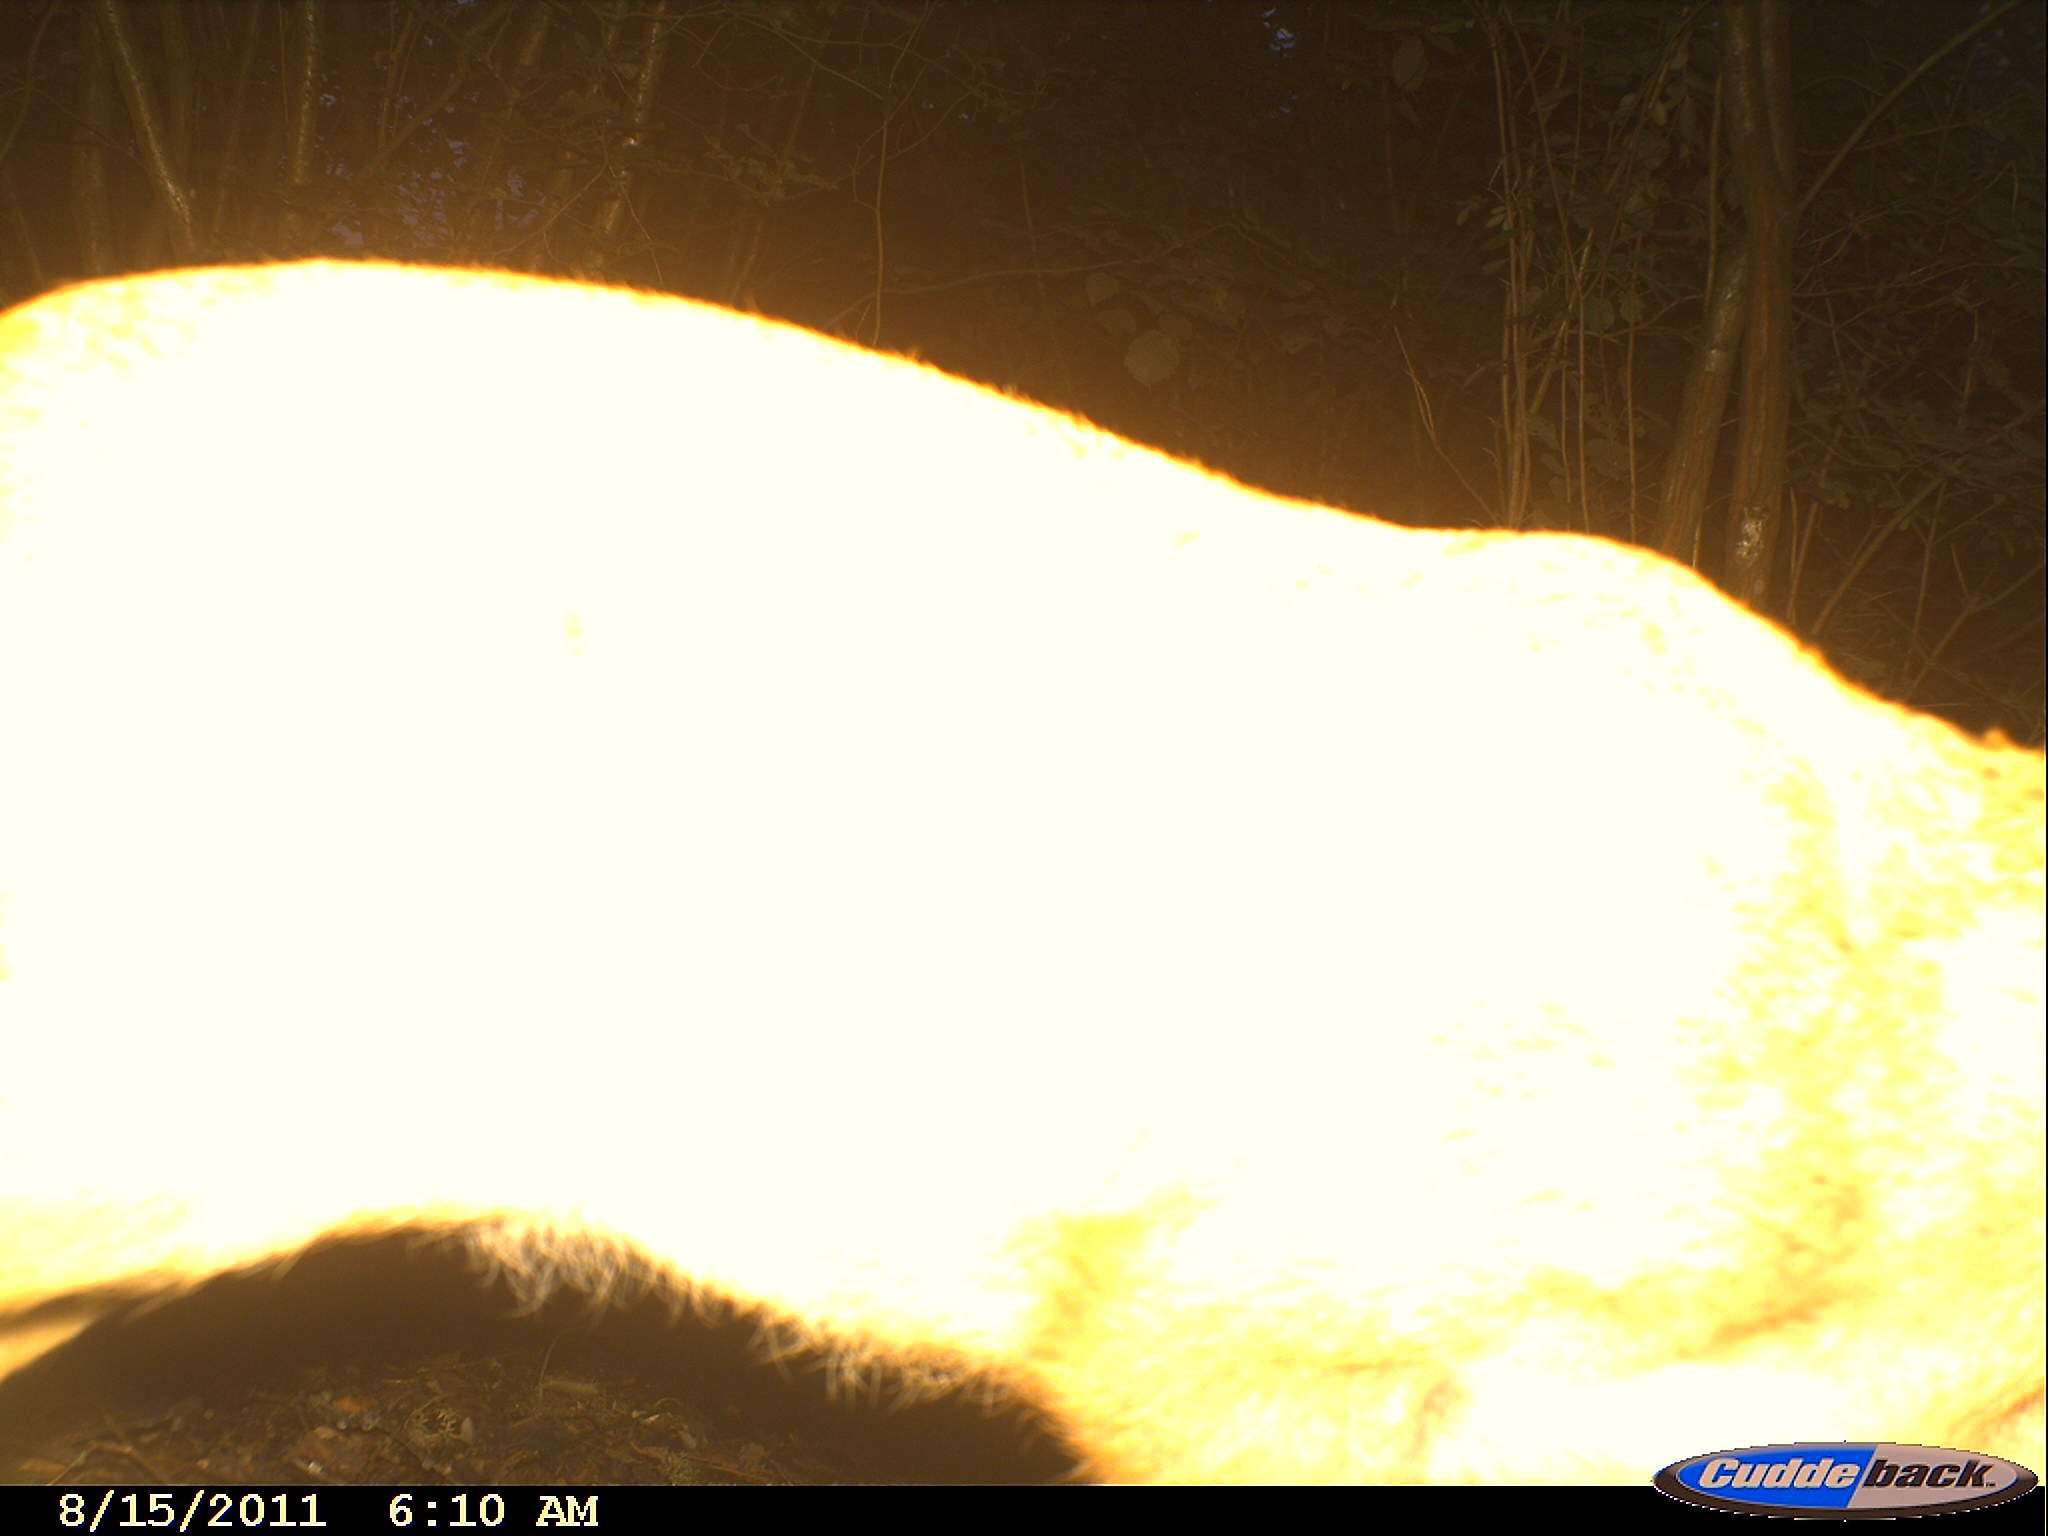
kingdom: Animalia
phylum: Chordata
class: Mammalia
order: Artiodactyla
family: Cervidae
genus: Capreolus
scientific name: Capreolus capreolus
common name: Western roe deer
